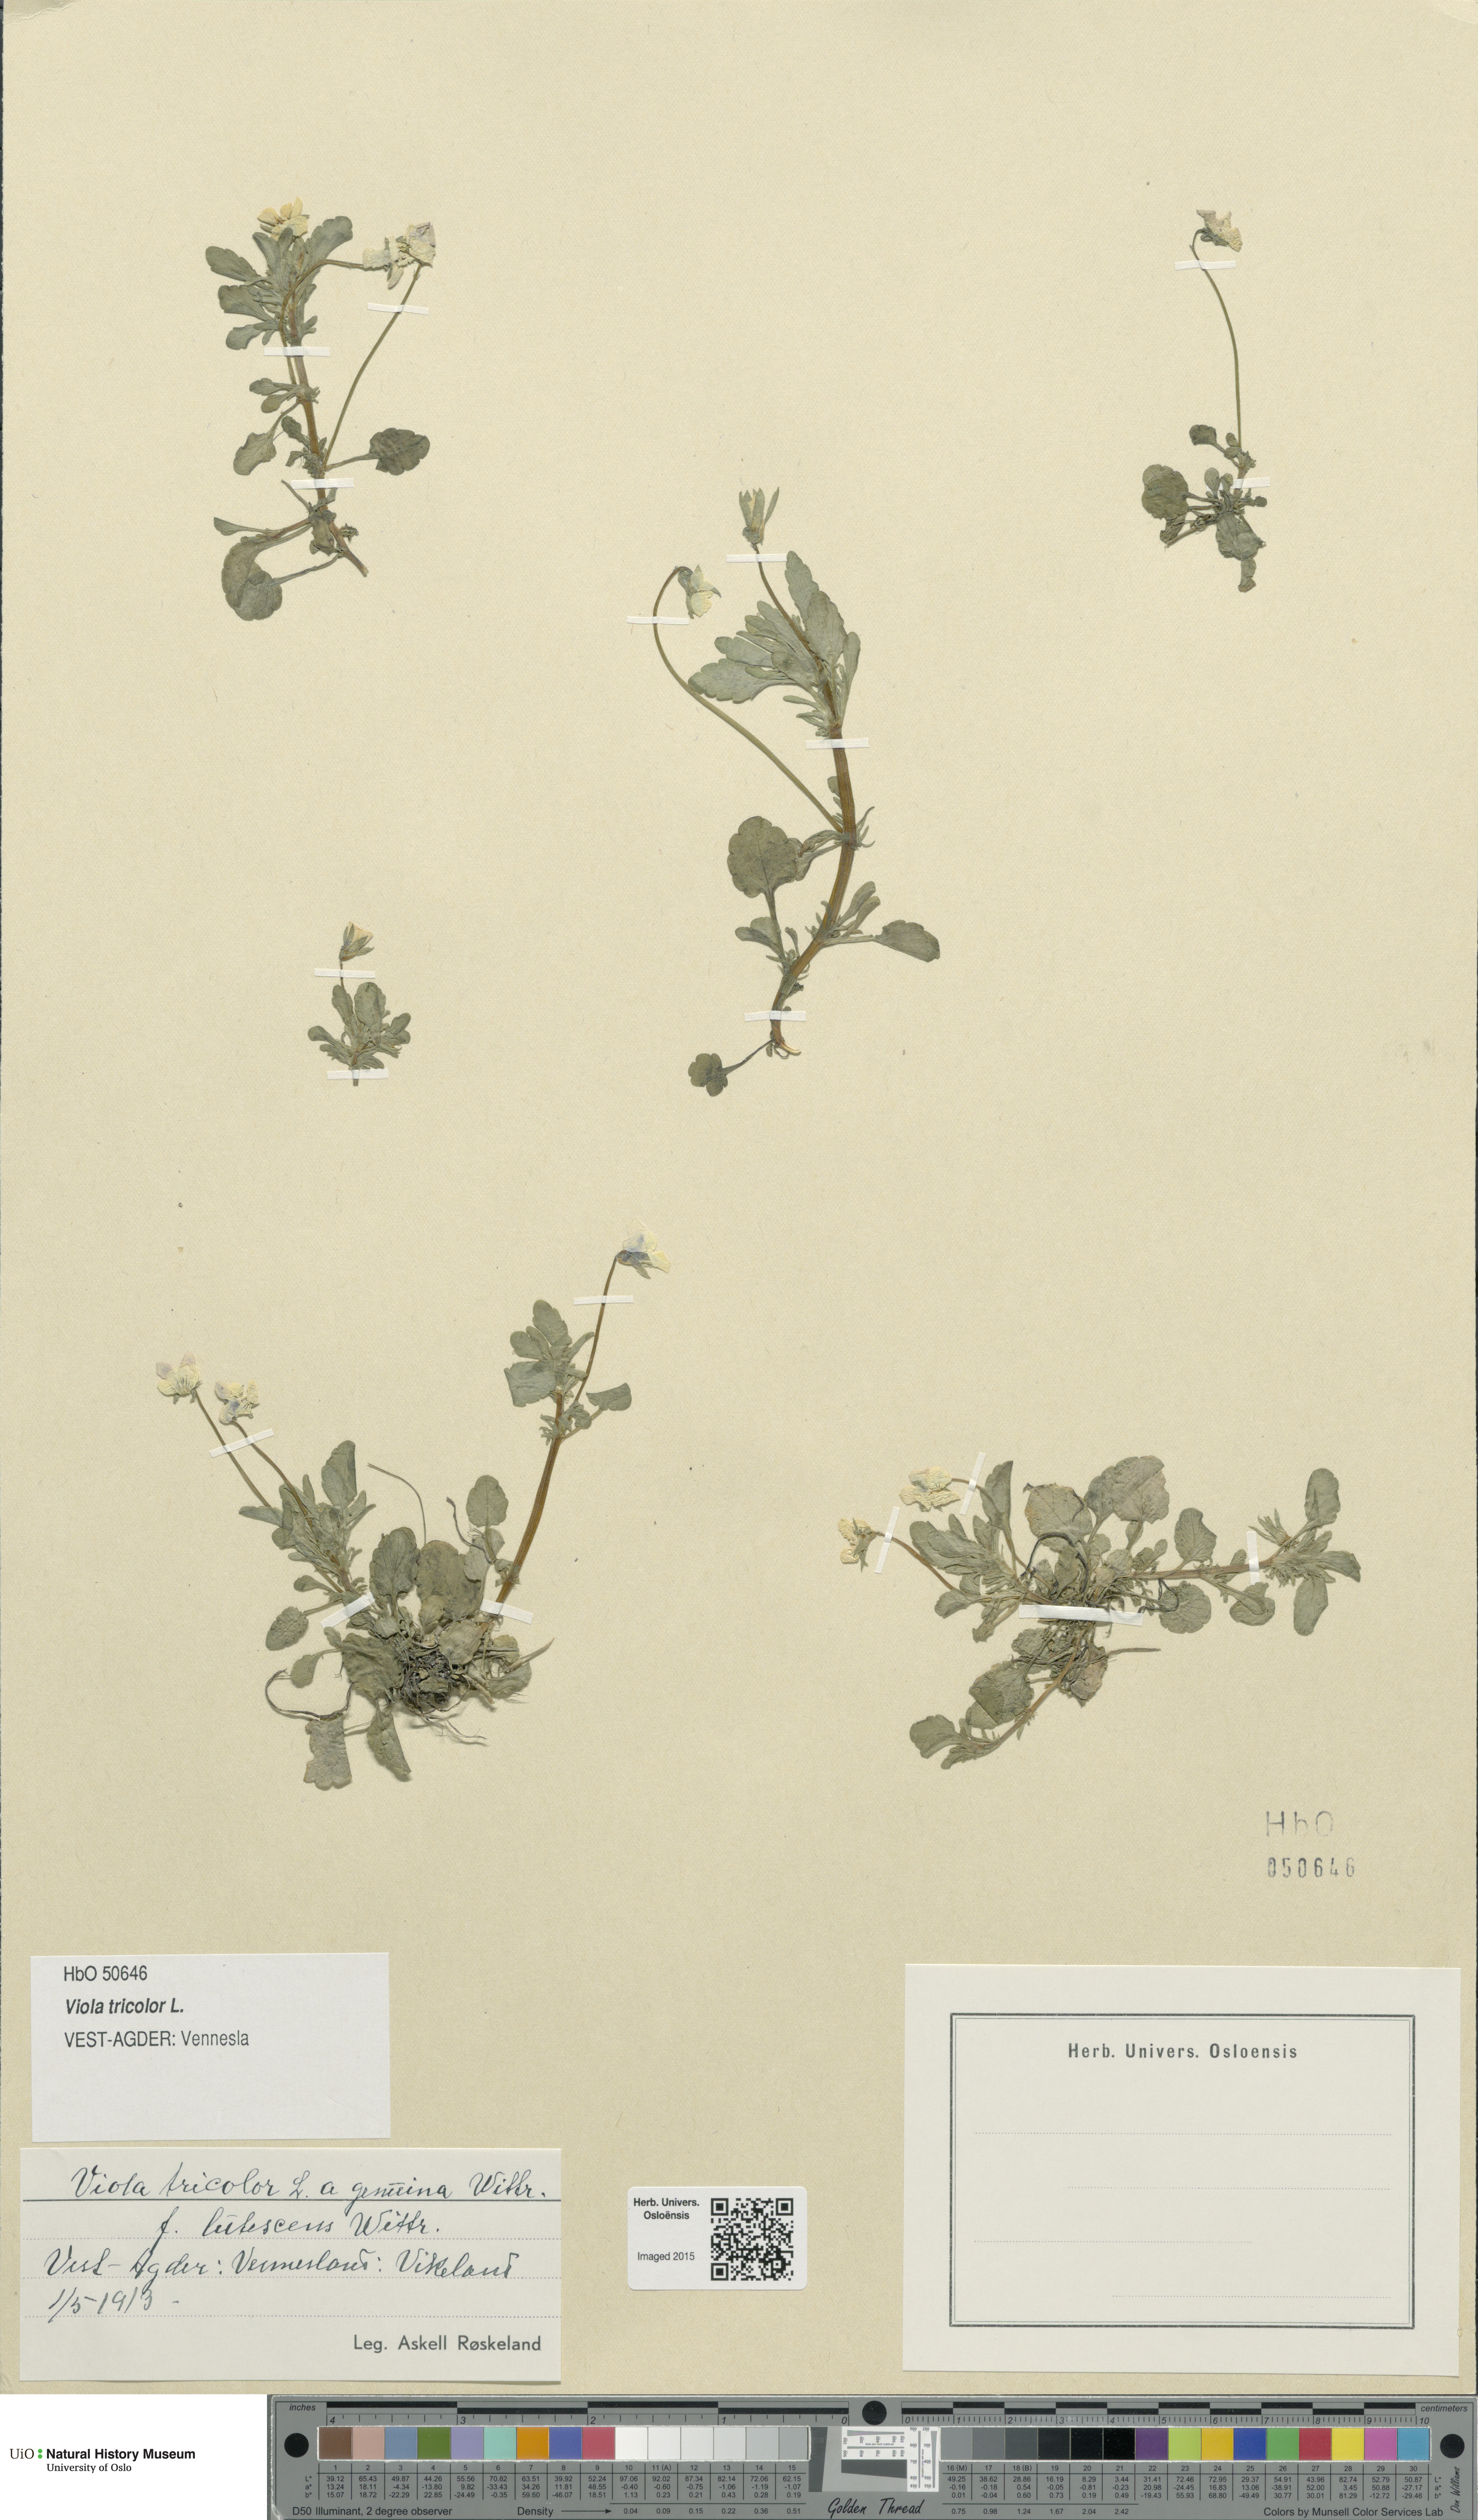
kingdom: Plantae
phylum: Tracheophyta
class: Magnoliopsida
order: Malpighiales
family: Violaceae
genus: Viola
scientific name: Viola tricolor
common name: Pansy
